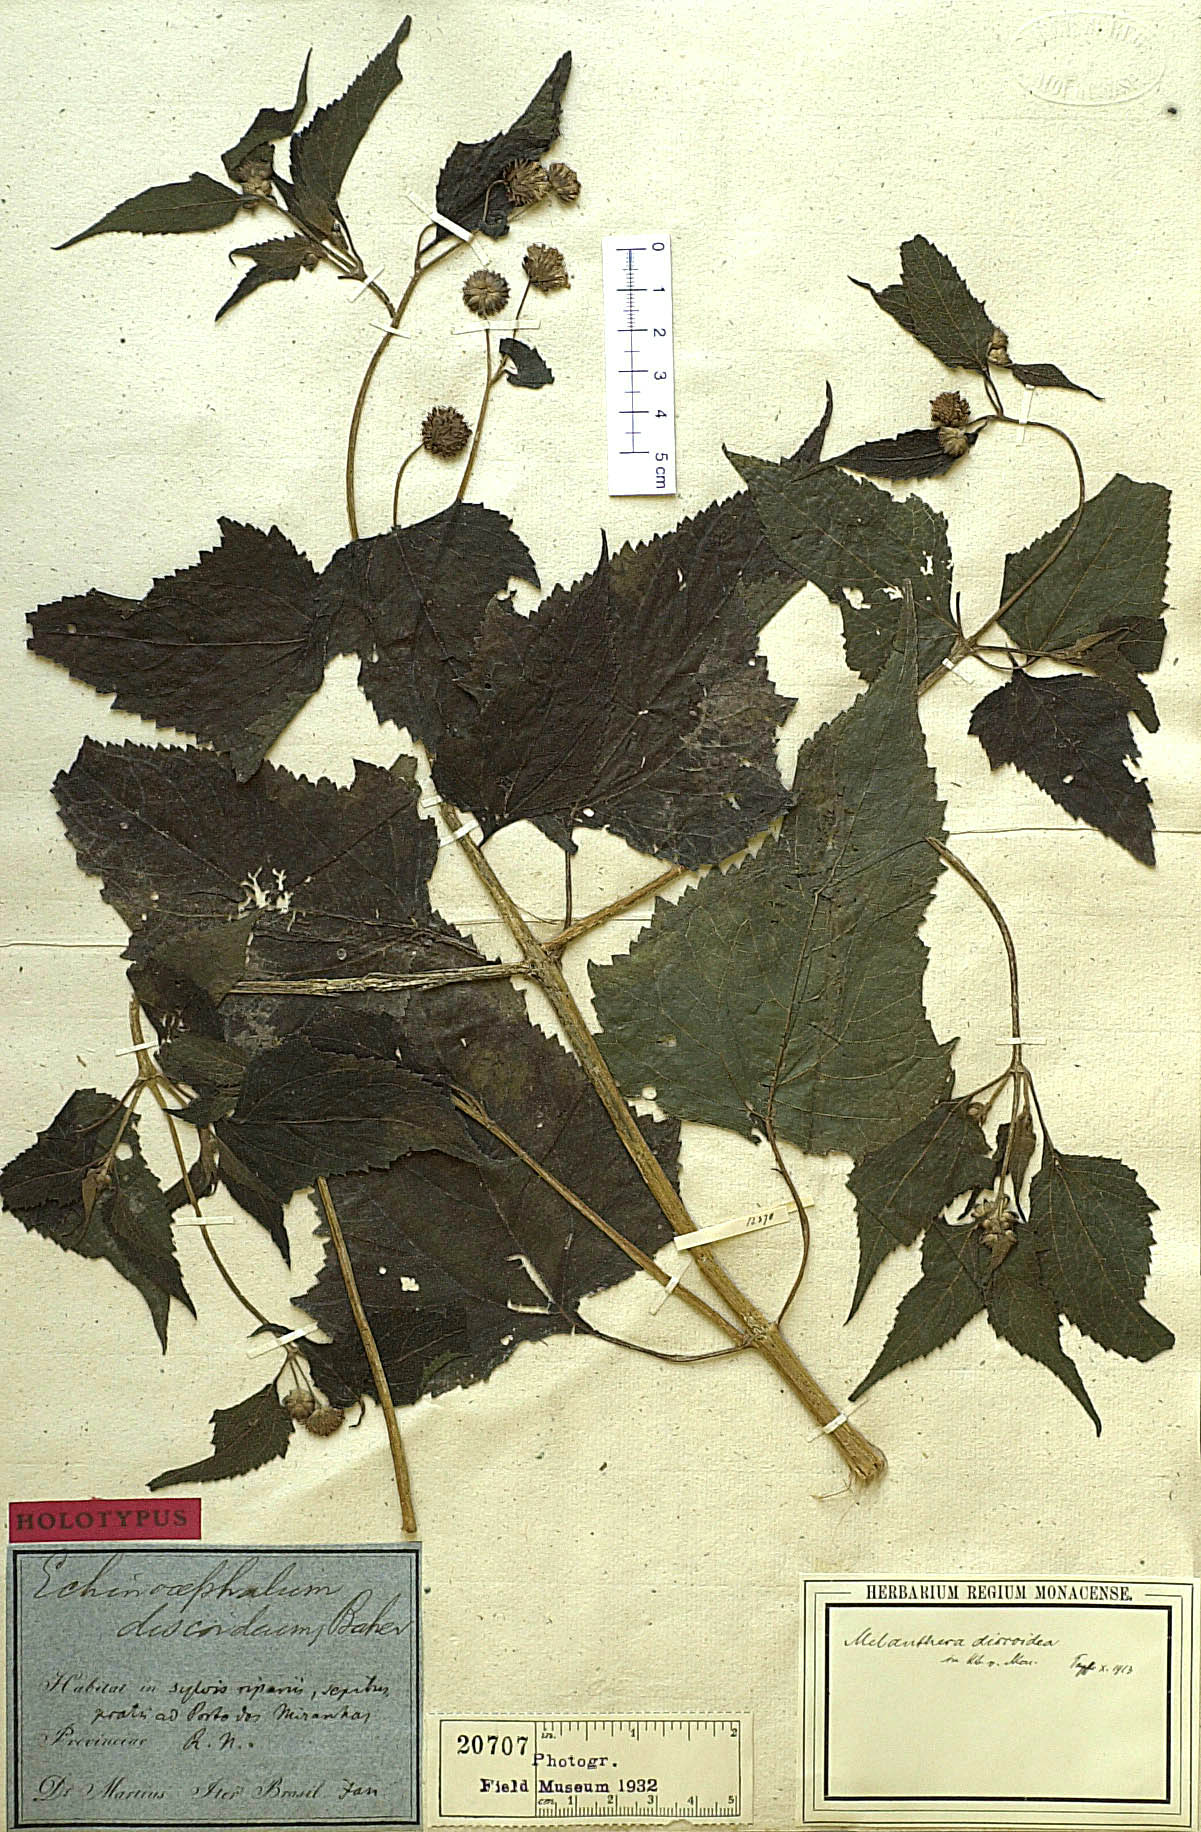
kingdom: Plantae
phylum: Tracheophyta
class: Magnoliopsida
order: Asterales
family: Asteraceae
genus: Melanthera
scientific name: Melanthera nivea
